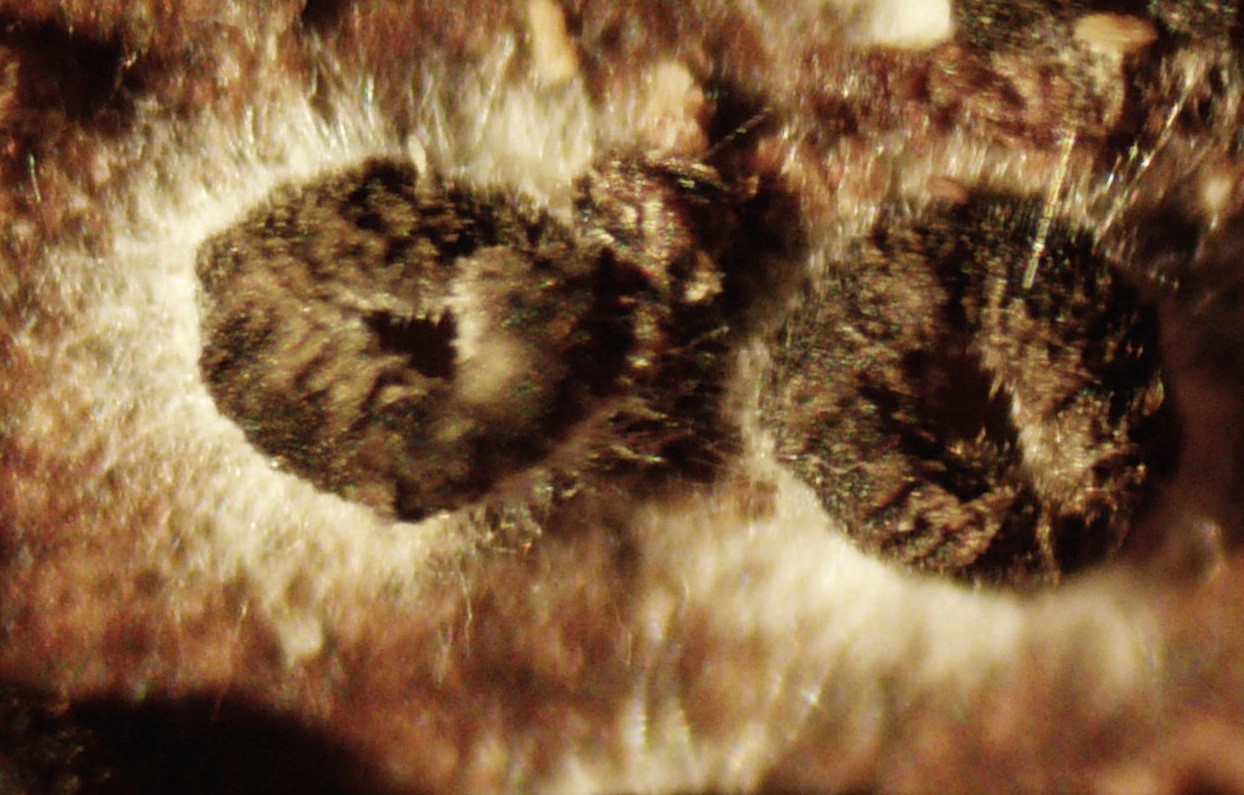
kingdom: Fungi
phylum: Ascomycota
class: Leotiomycetes
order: Helotiales
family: Ploettnerulaceae
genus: Pyrenopeziza
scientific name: Pyrenopeziza rubi
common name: hindbær-kerneskive
